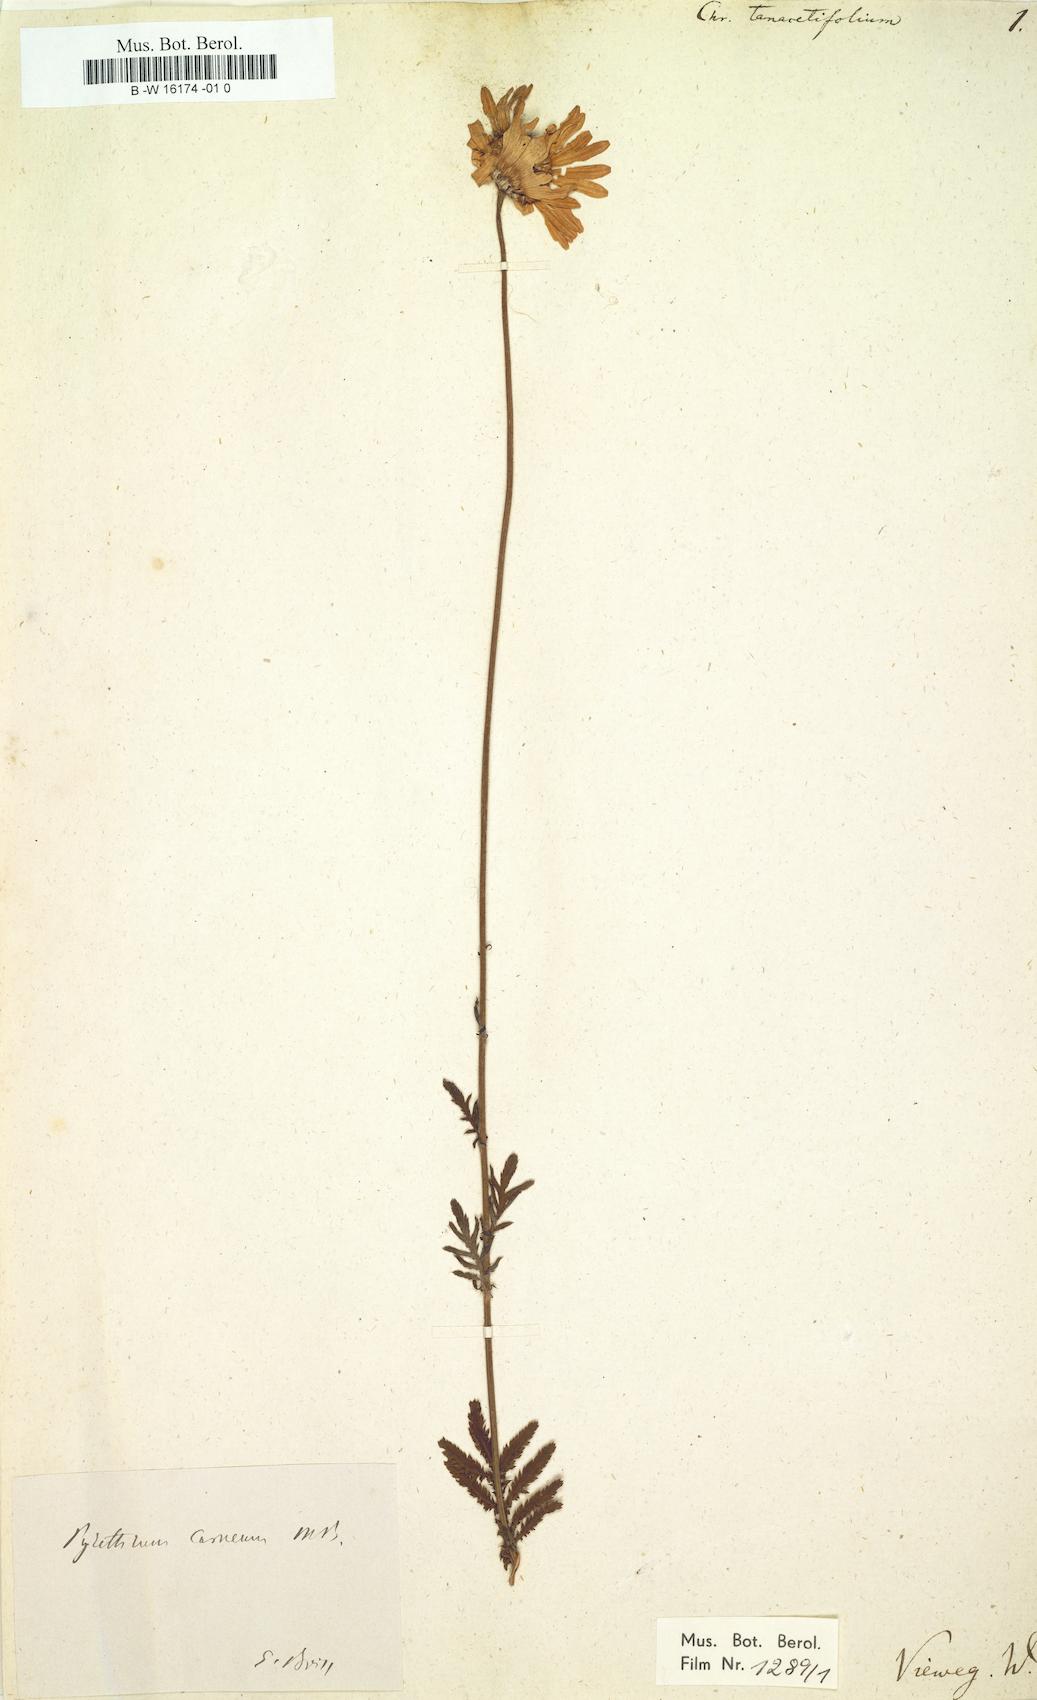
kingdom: Plantae
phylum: Tracheophyta
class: Magnoliopsida
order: Asterales
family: Asteraceae
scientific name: Asteraceae
